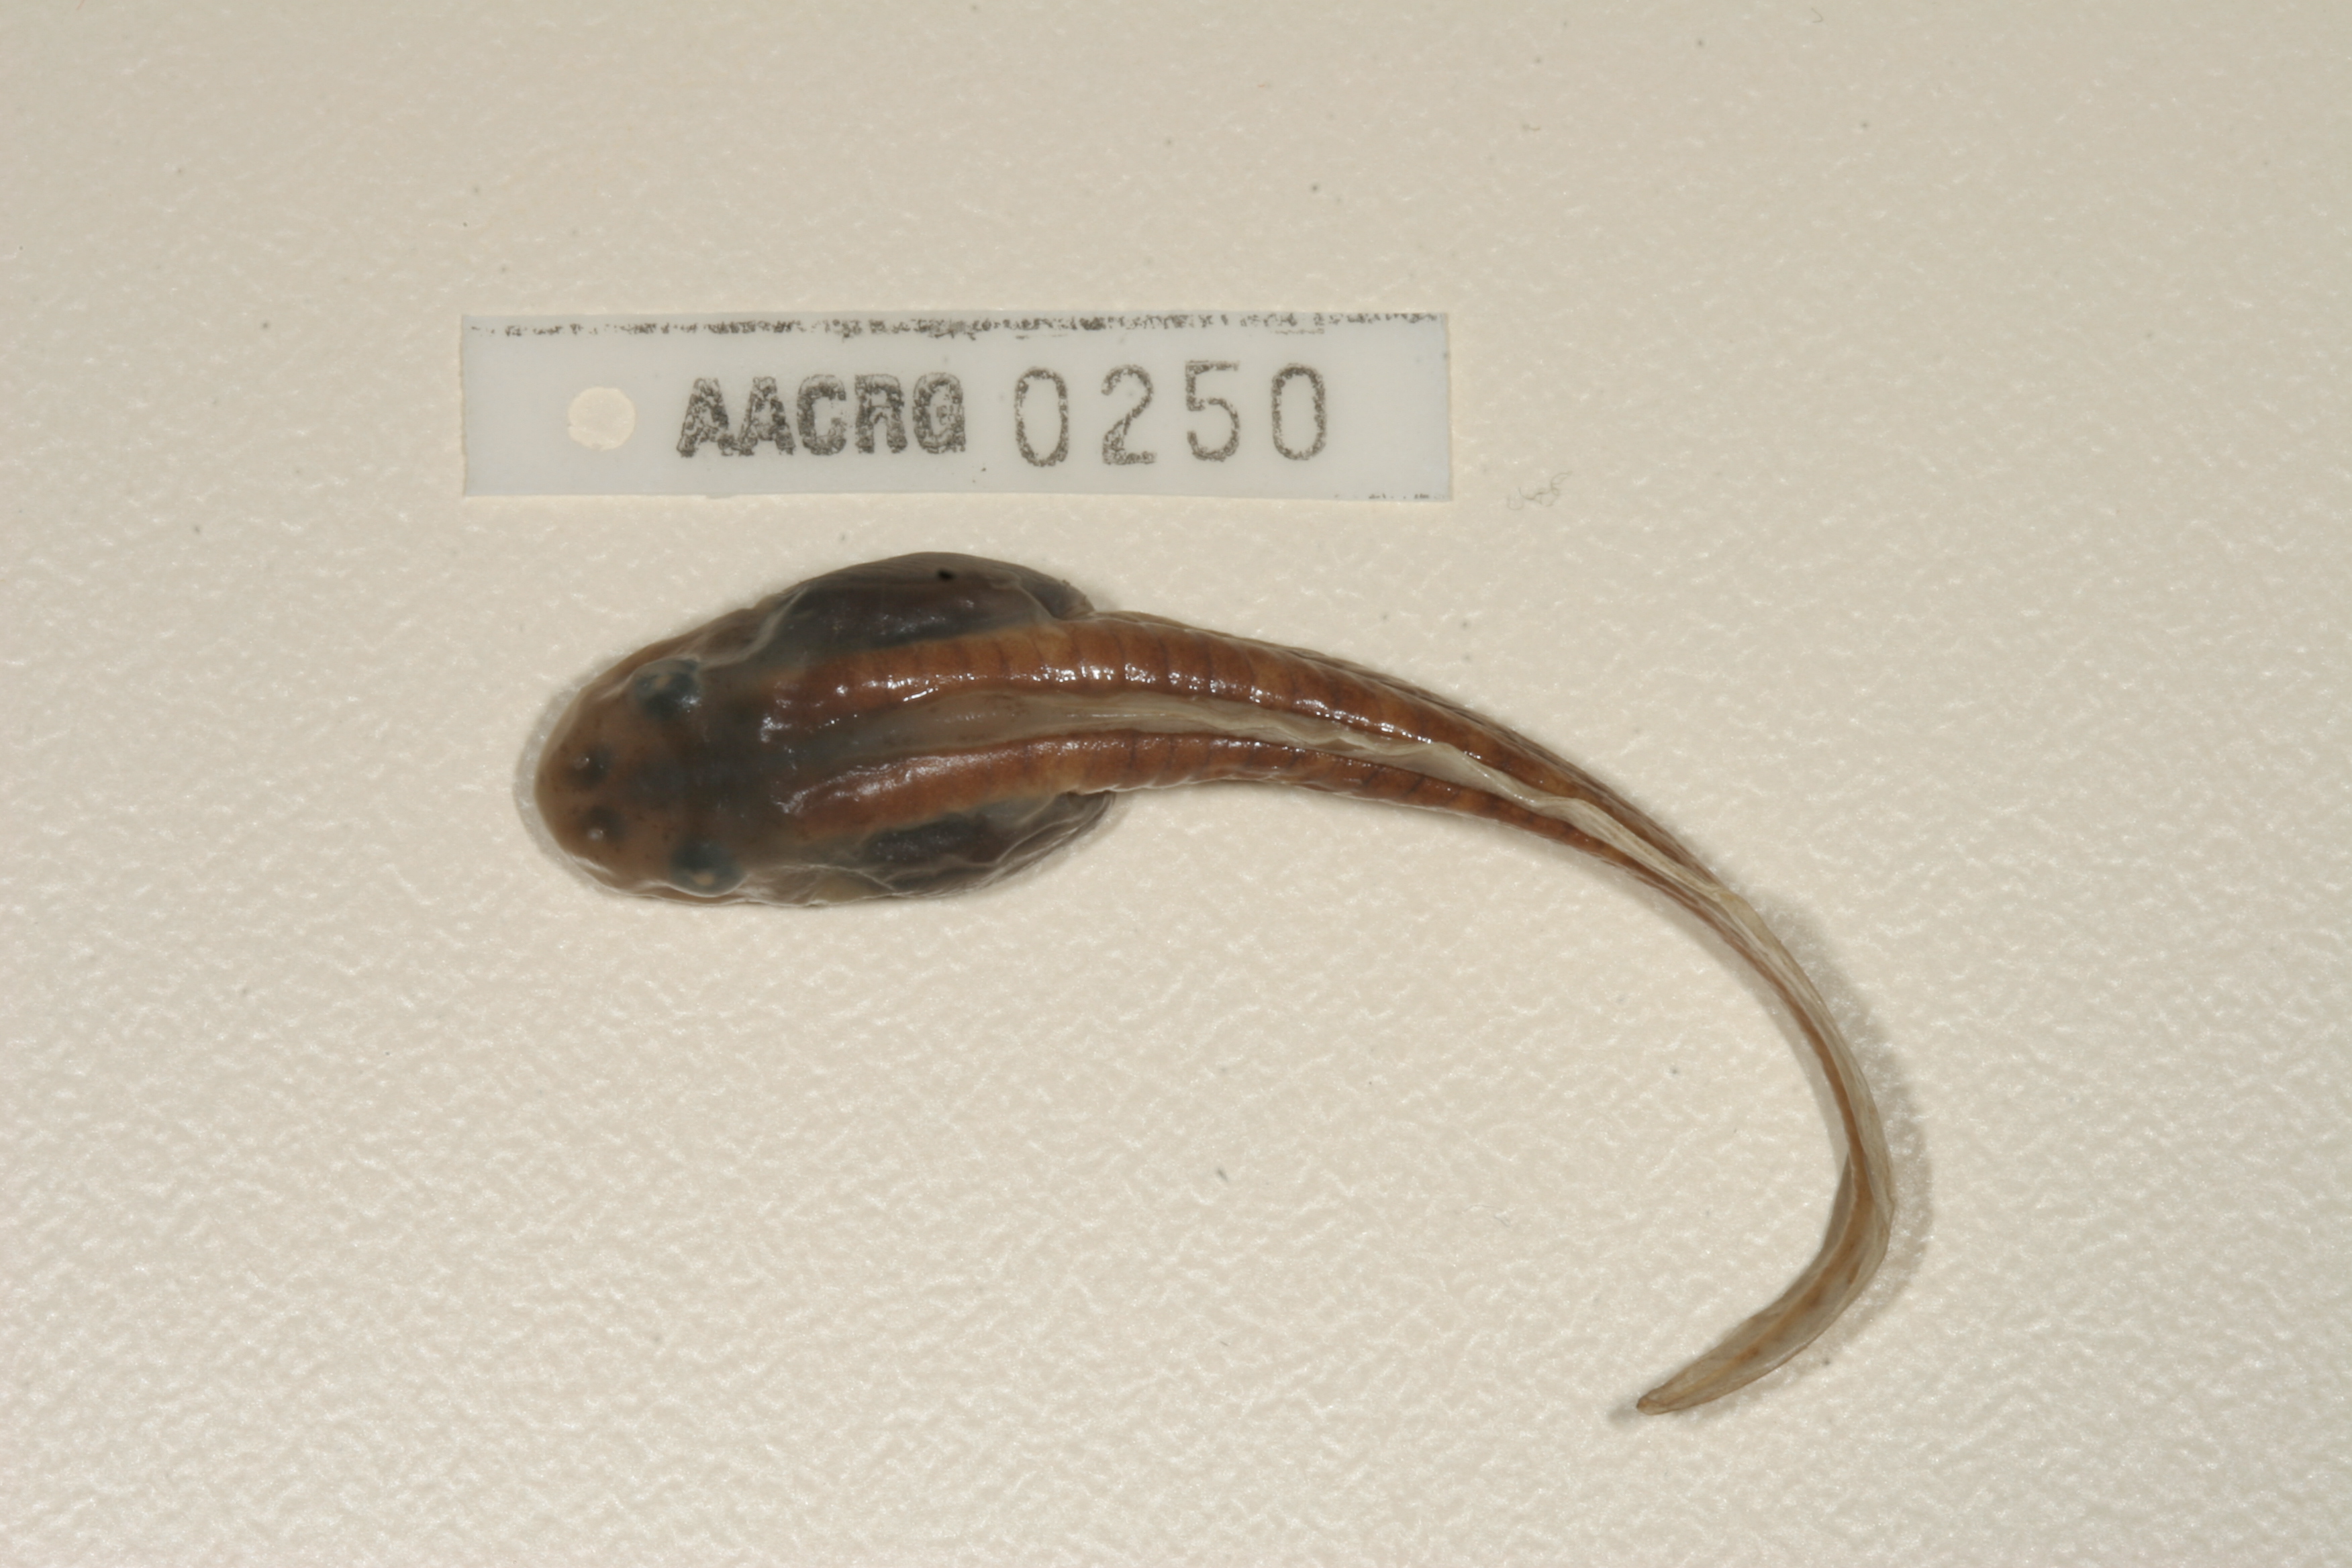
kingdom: Animalia
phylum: Chordata
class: Amphibia
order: Anura
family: Pyxicephalidae
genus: Amietia
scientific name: Amietia fuscigula
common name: Cape rana
